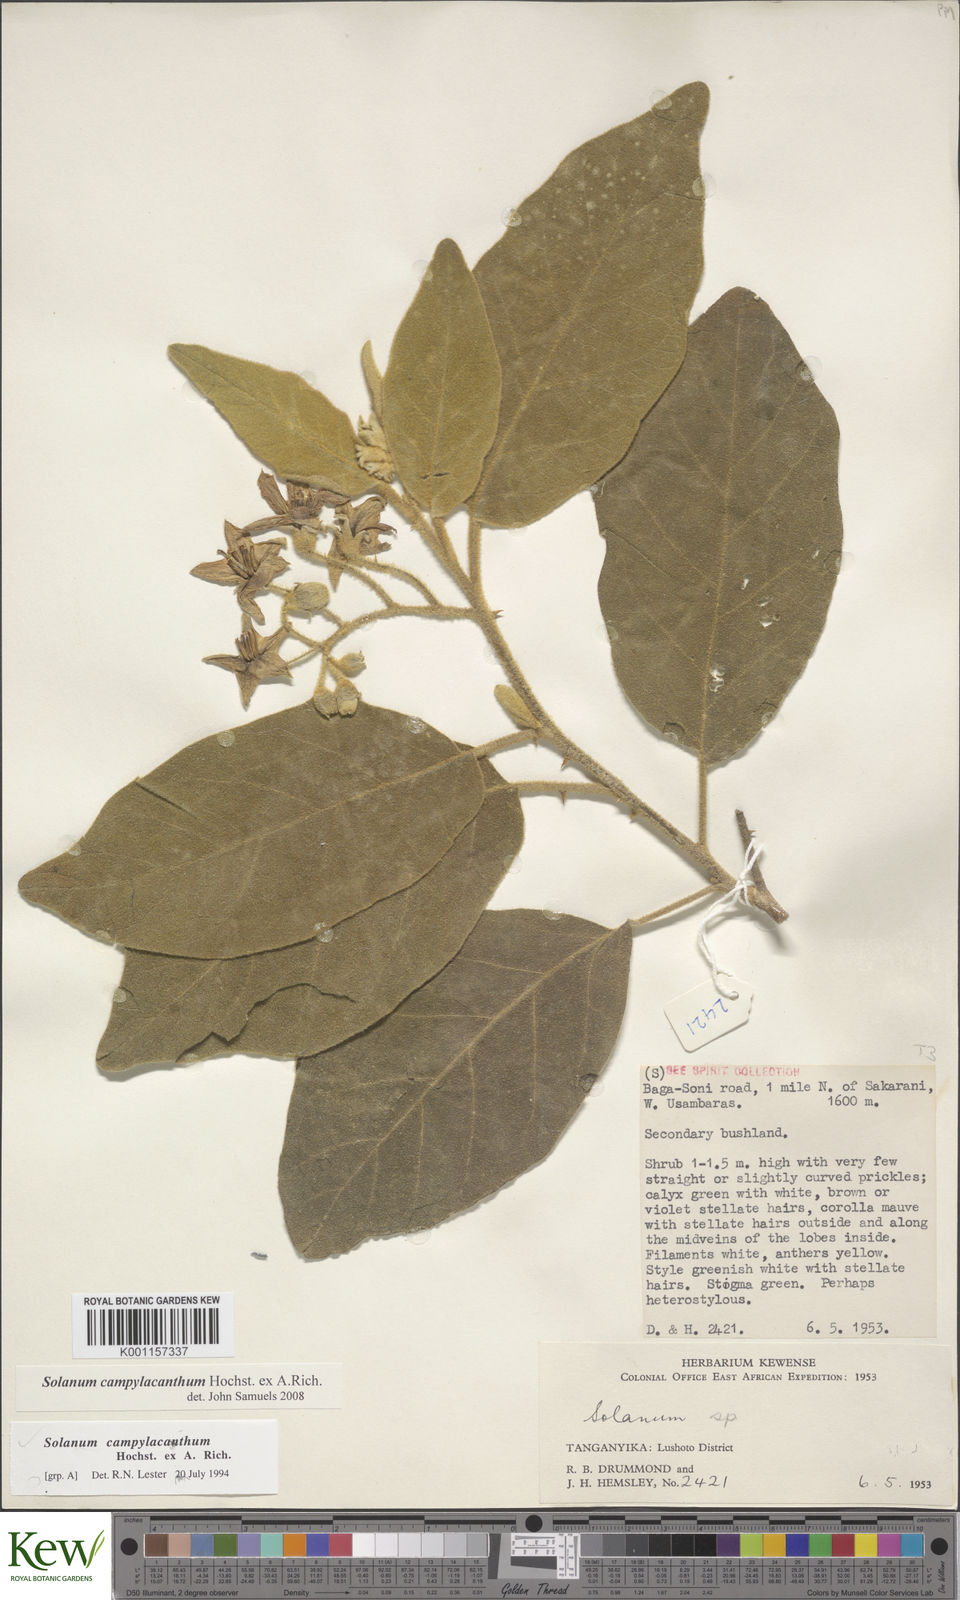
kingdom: Plantae
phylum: Tracheophyta
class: Magnoliopsida
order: Solanales
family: Solanaceae
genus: Solanum
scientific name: Solanum campylacanthum
